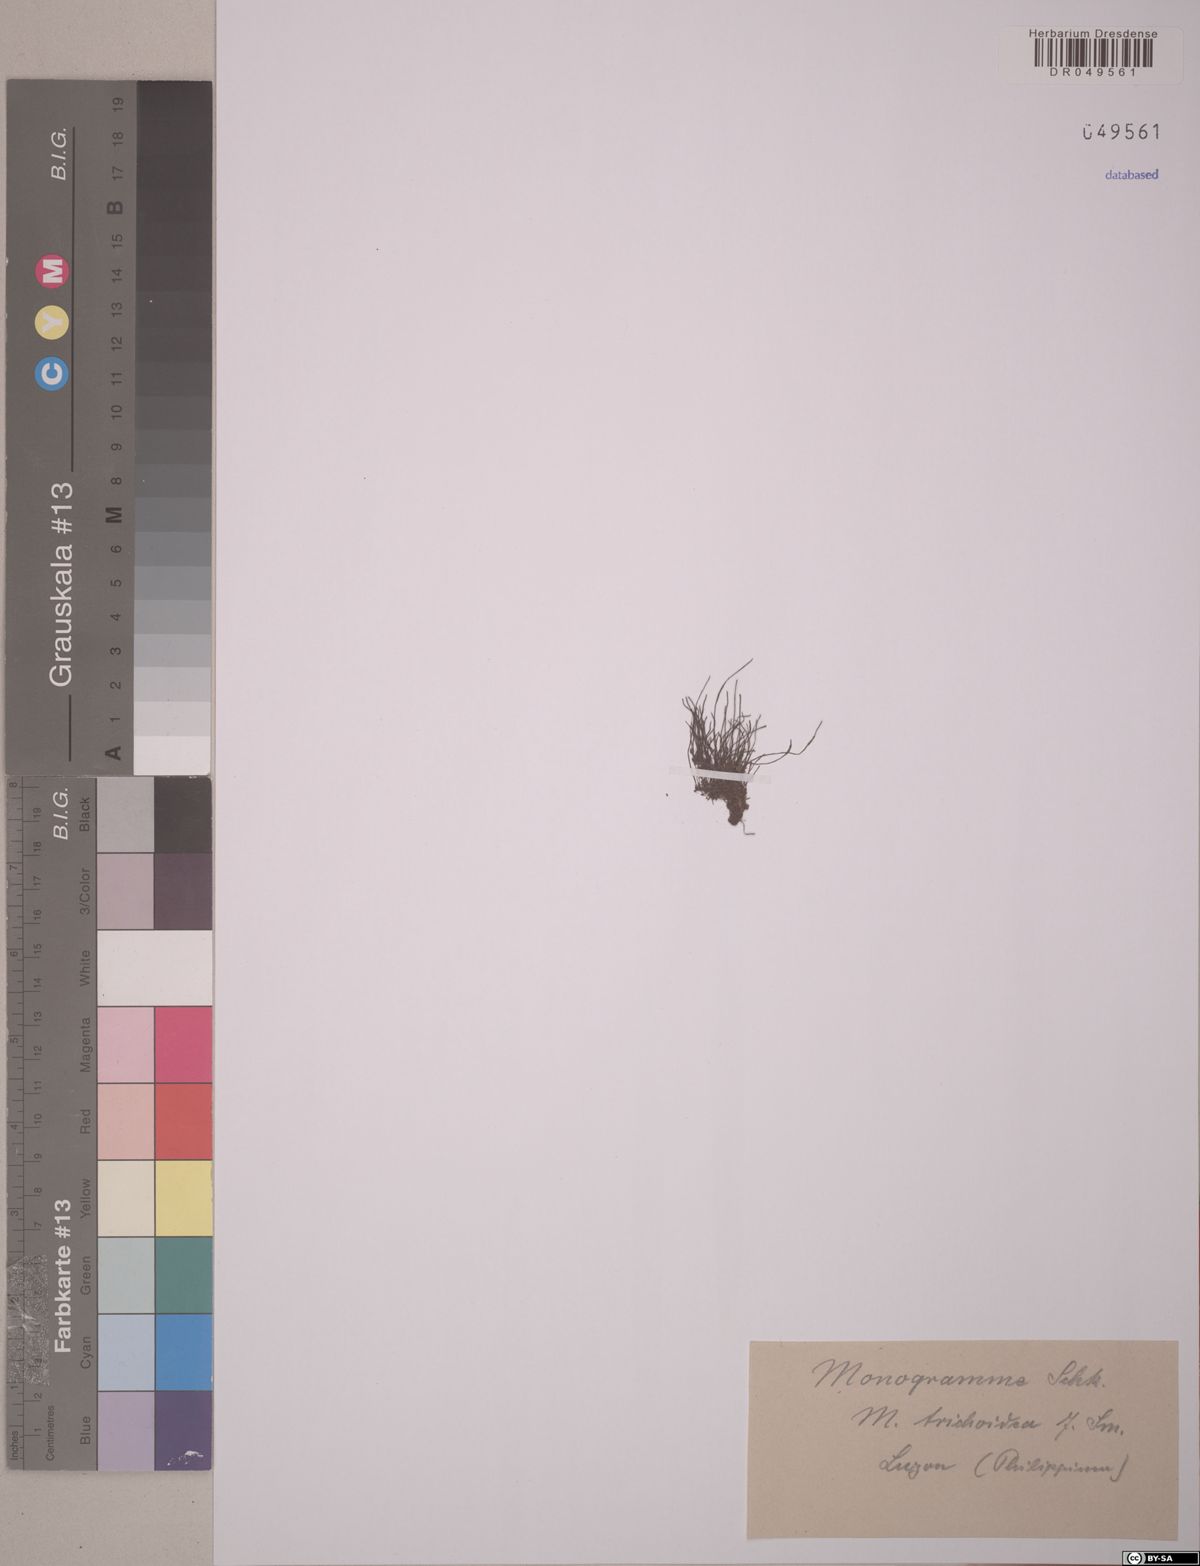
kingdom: Plantae
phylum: Tracheophyta
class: Polypodiopsida
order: Polypodiales
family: Pteridaceae
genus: Vaginularia
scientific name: Vaginularia trichoidea
